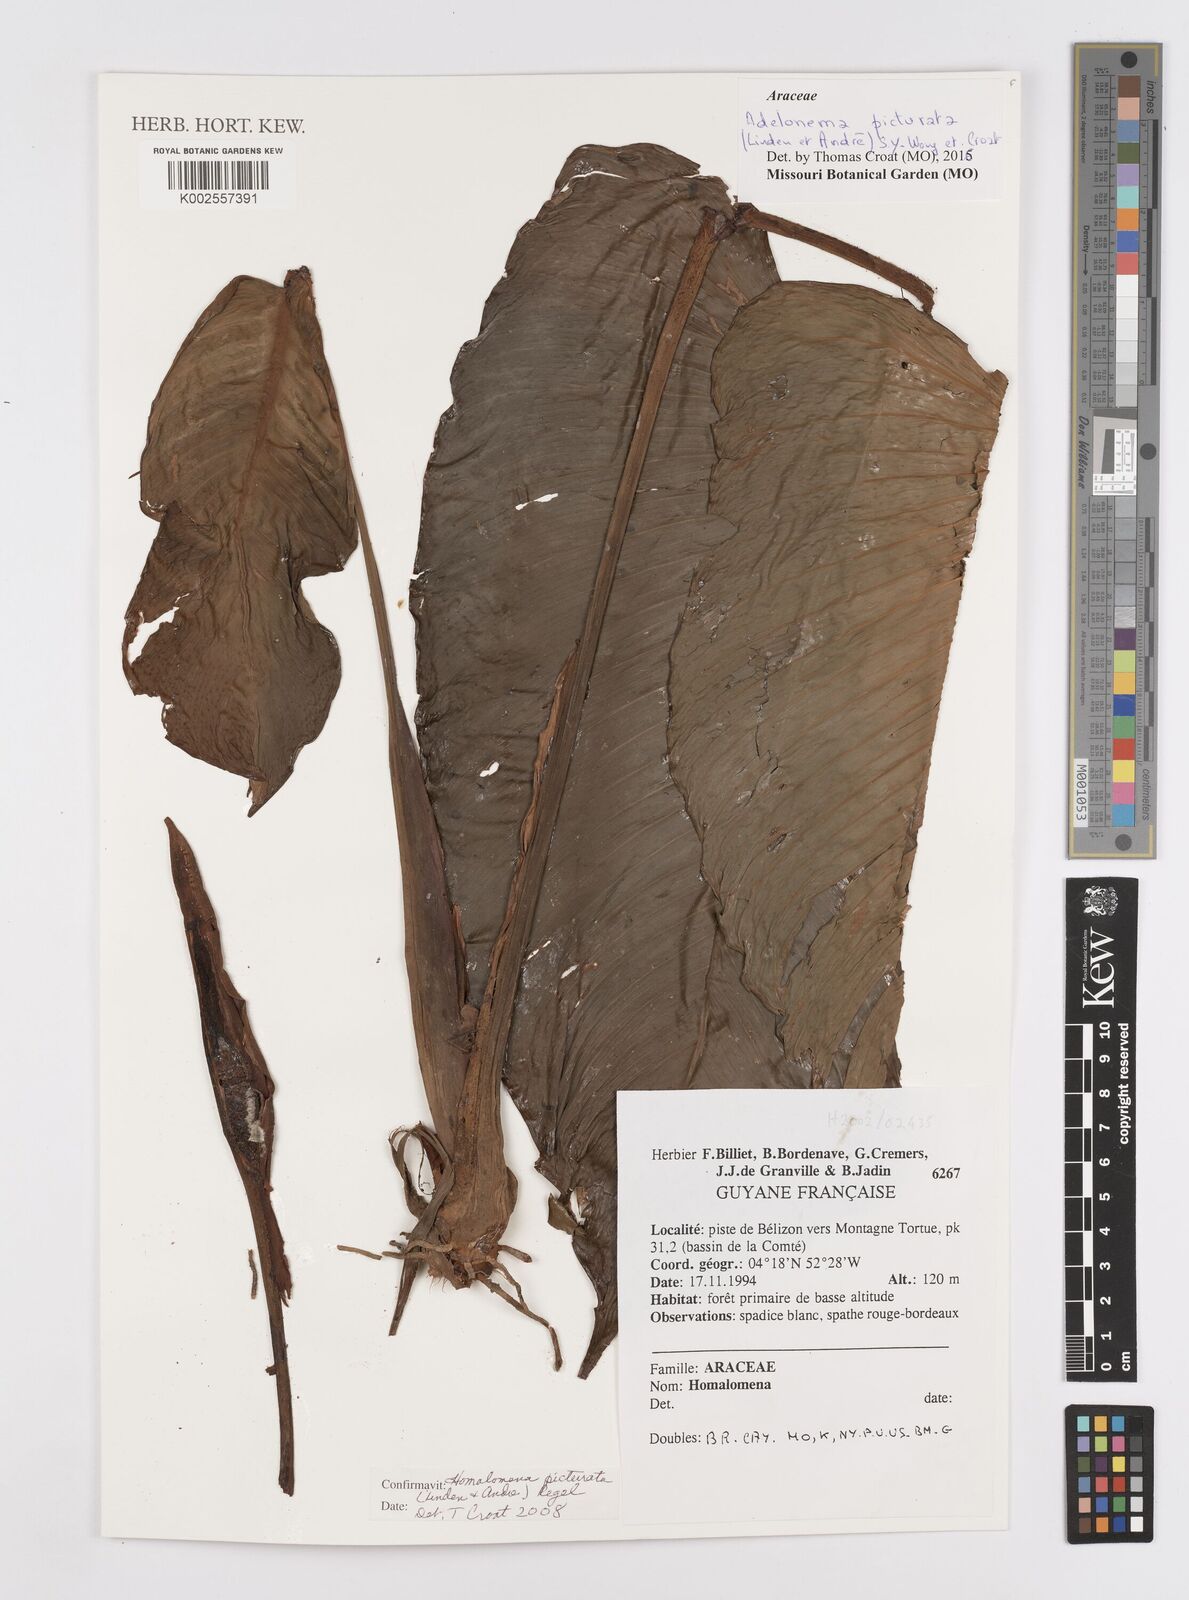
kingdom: Plantae
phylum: Tracheophyta
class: Liliopsida
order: Alismatales
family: Araceae
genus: Adelonema
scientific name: Adelonema picturatum
